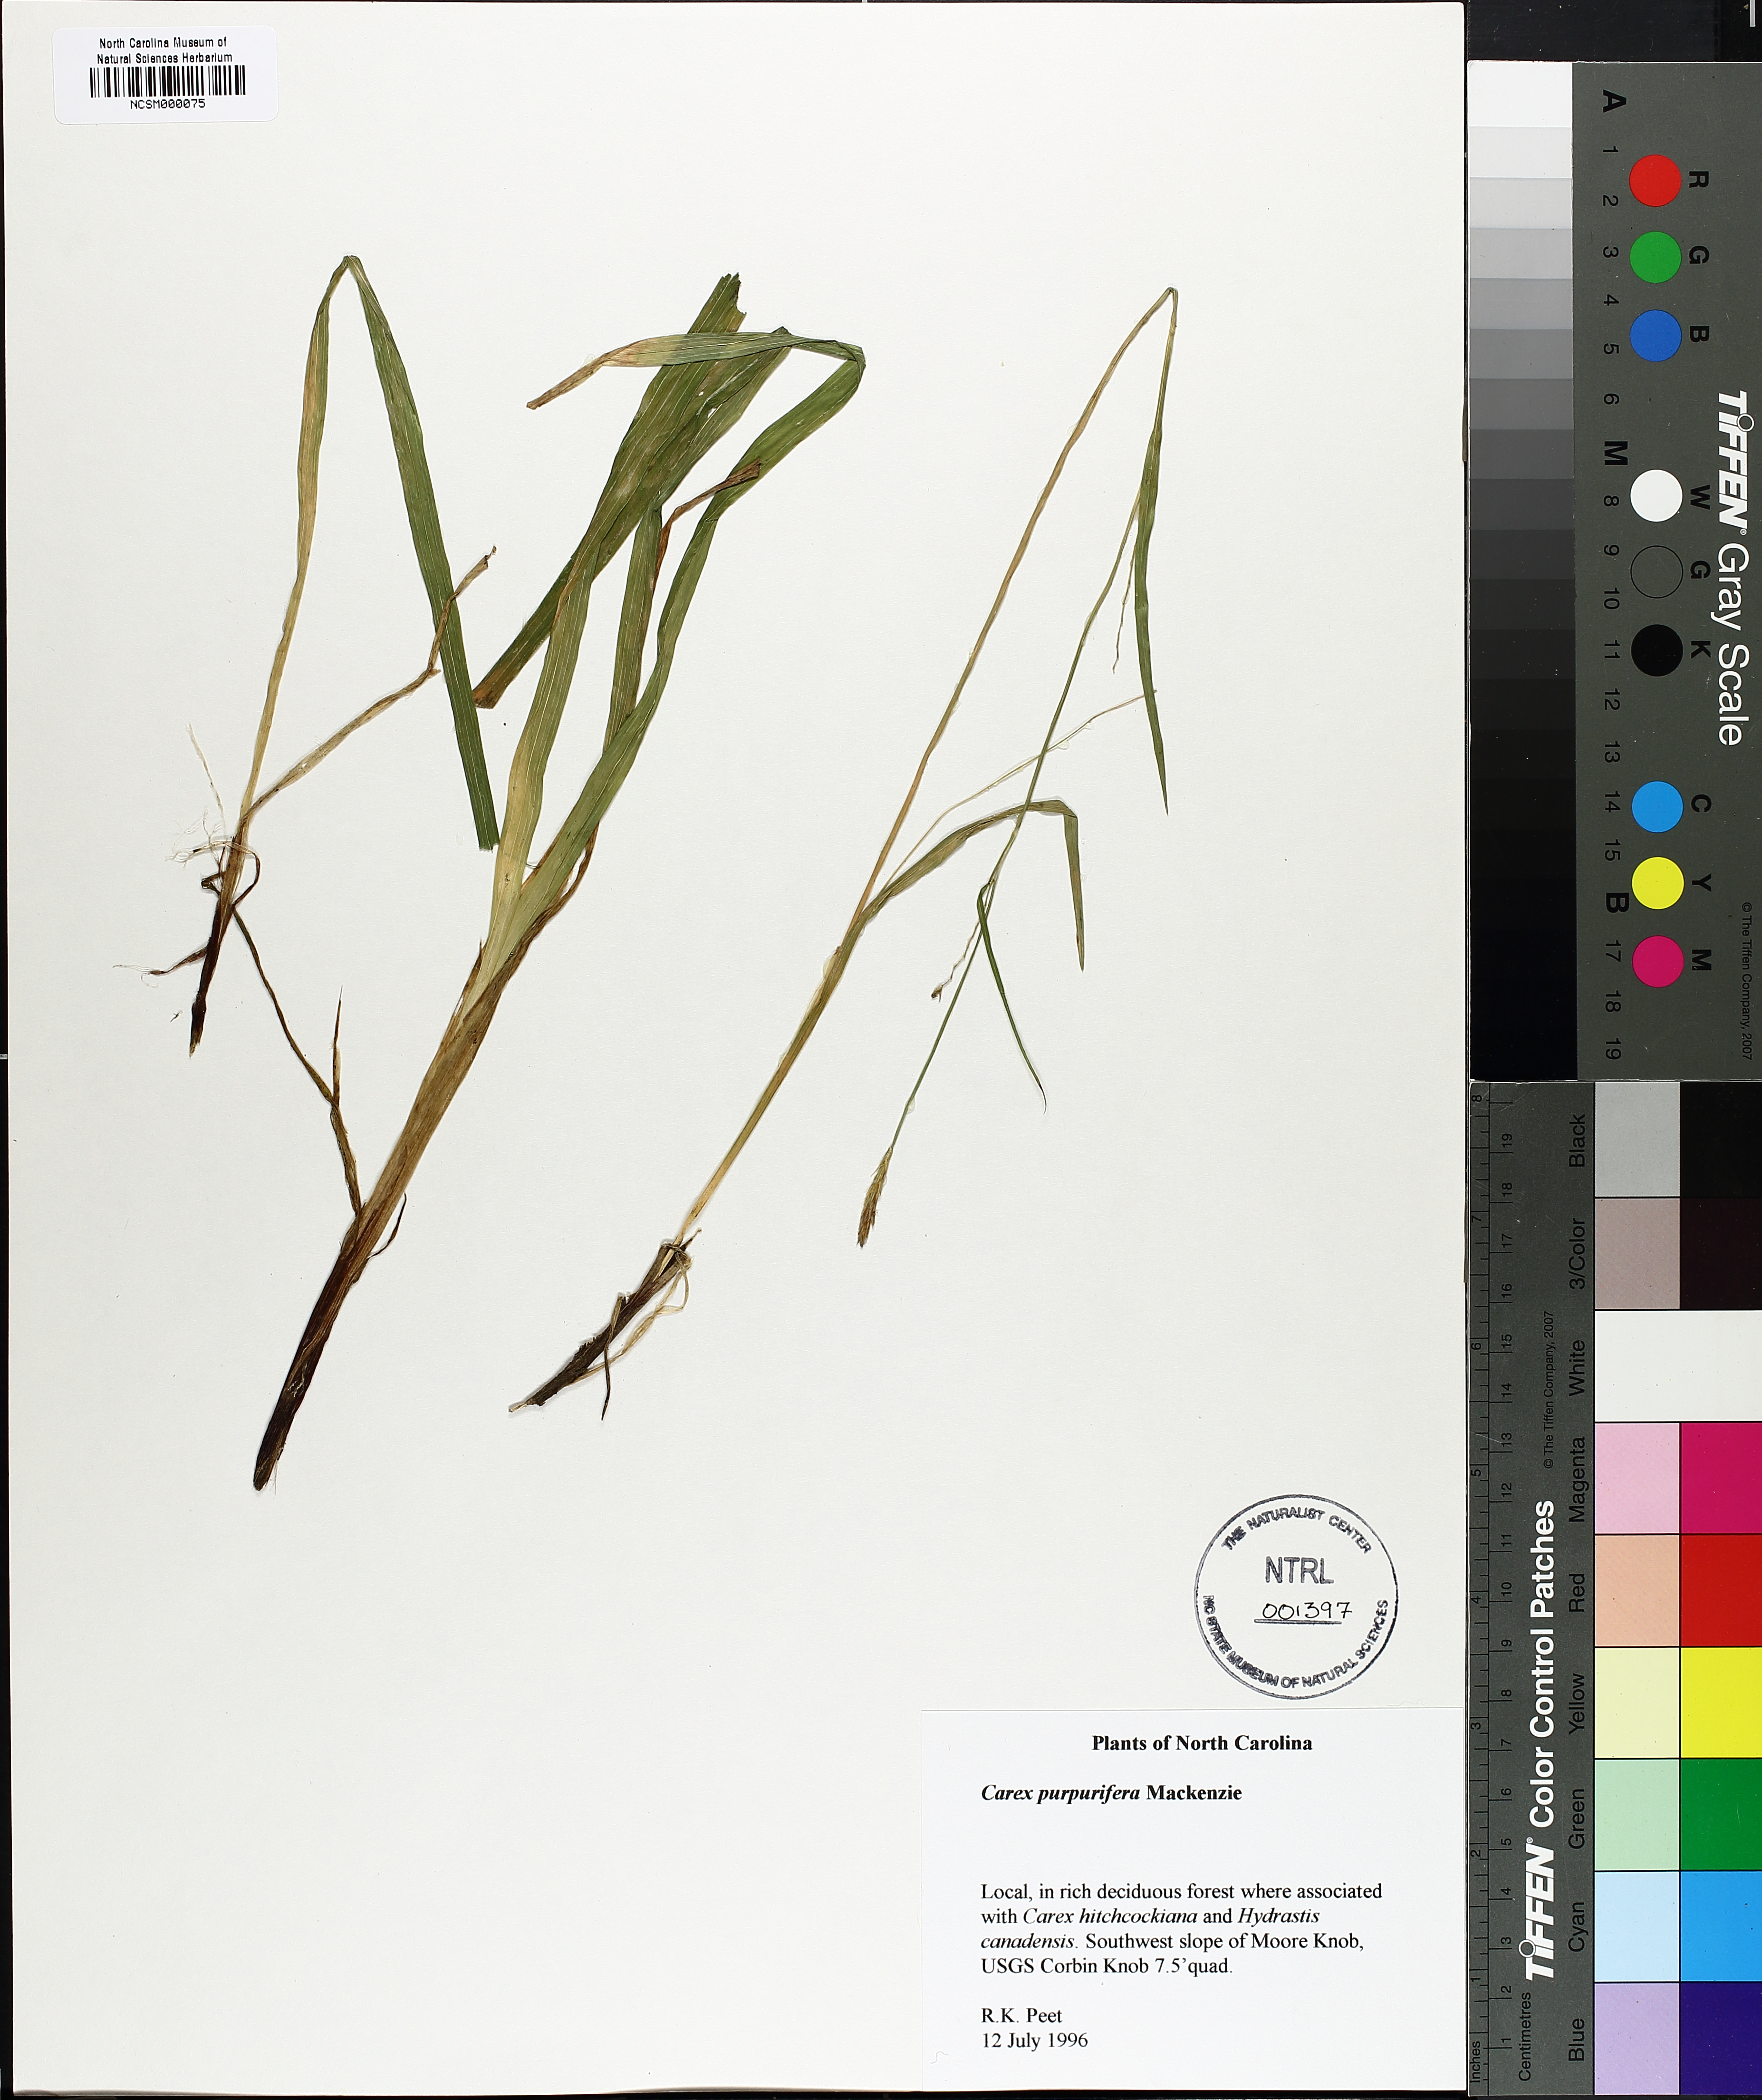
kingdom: Plantae
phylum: Tracheophyta
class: Liliopsida
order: Poales
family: Cyperaceae
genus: Carex
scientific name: Carex purpurifera
